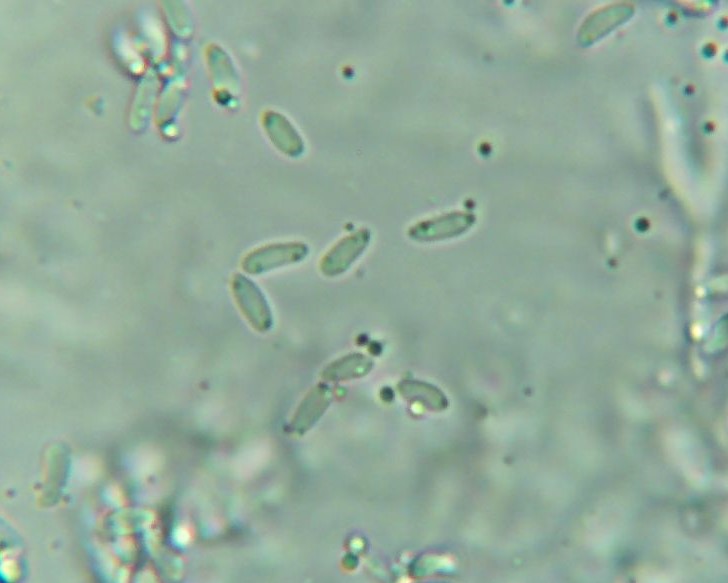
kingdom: Fungi
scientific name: Fungi
